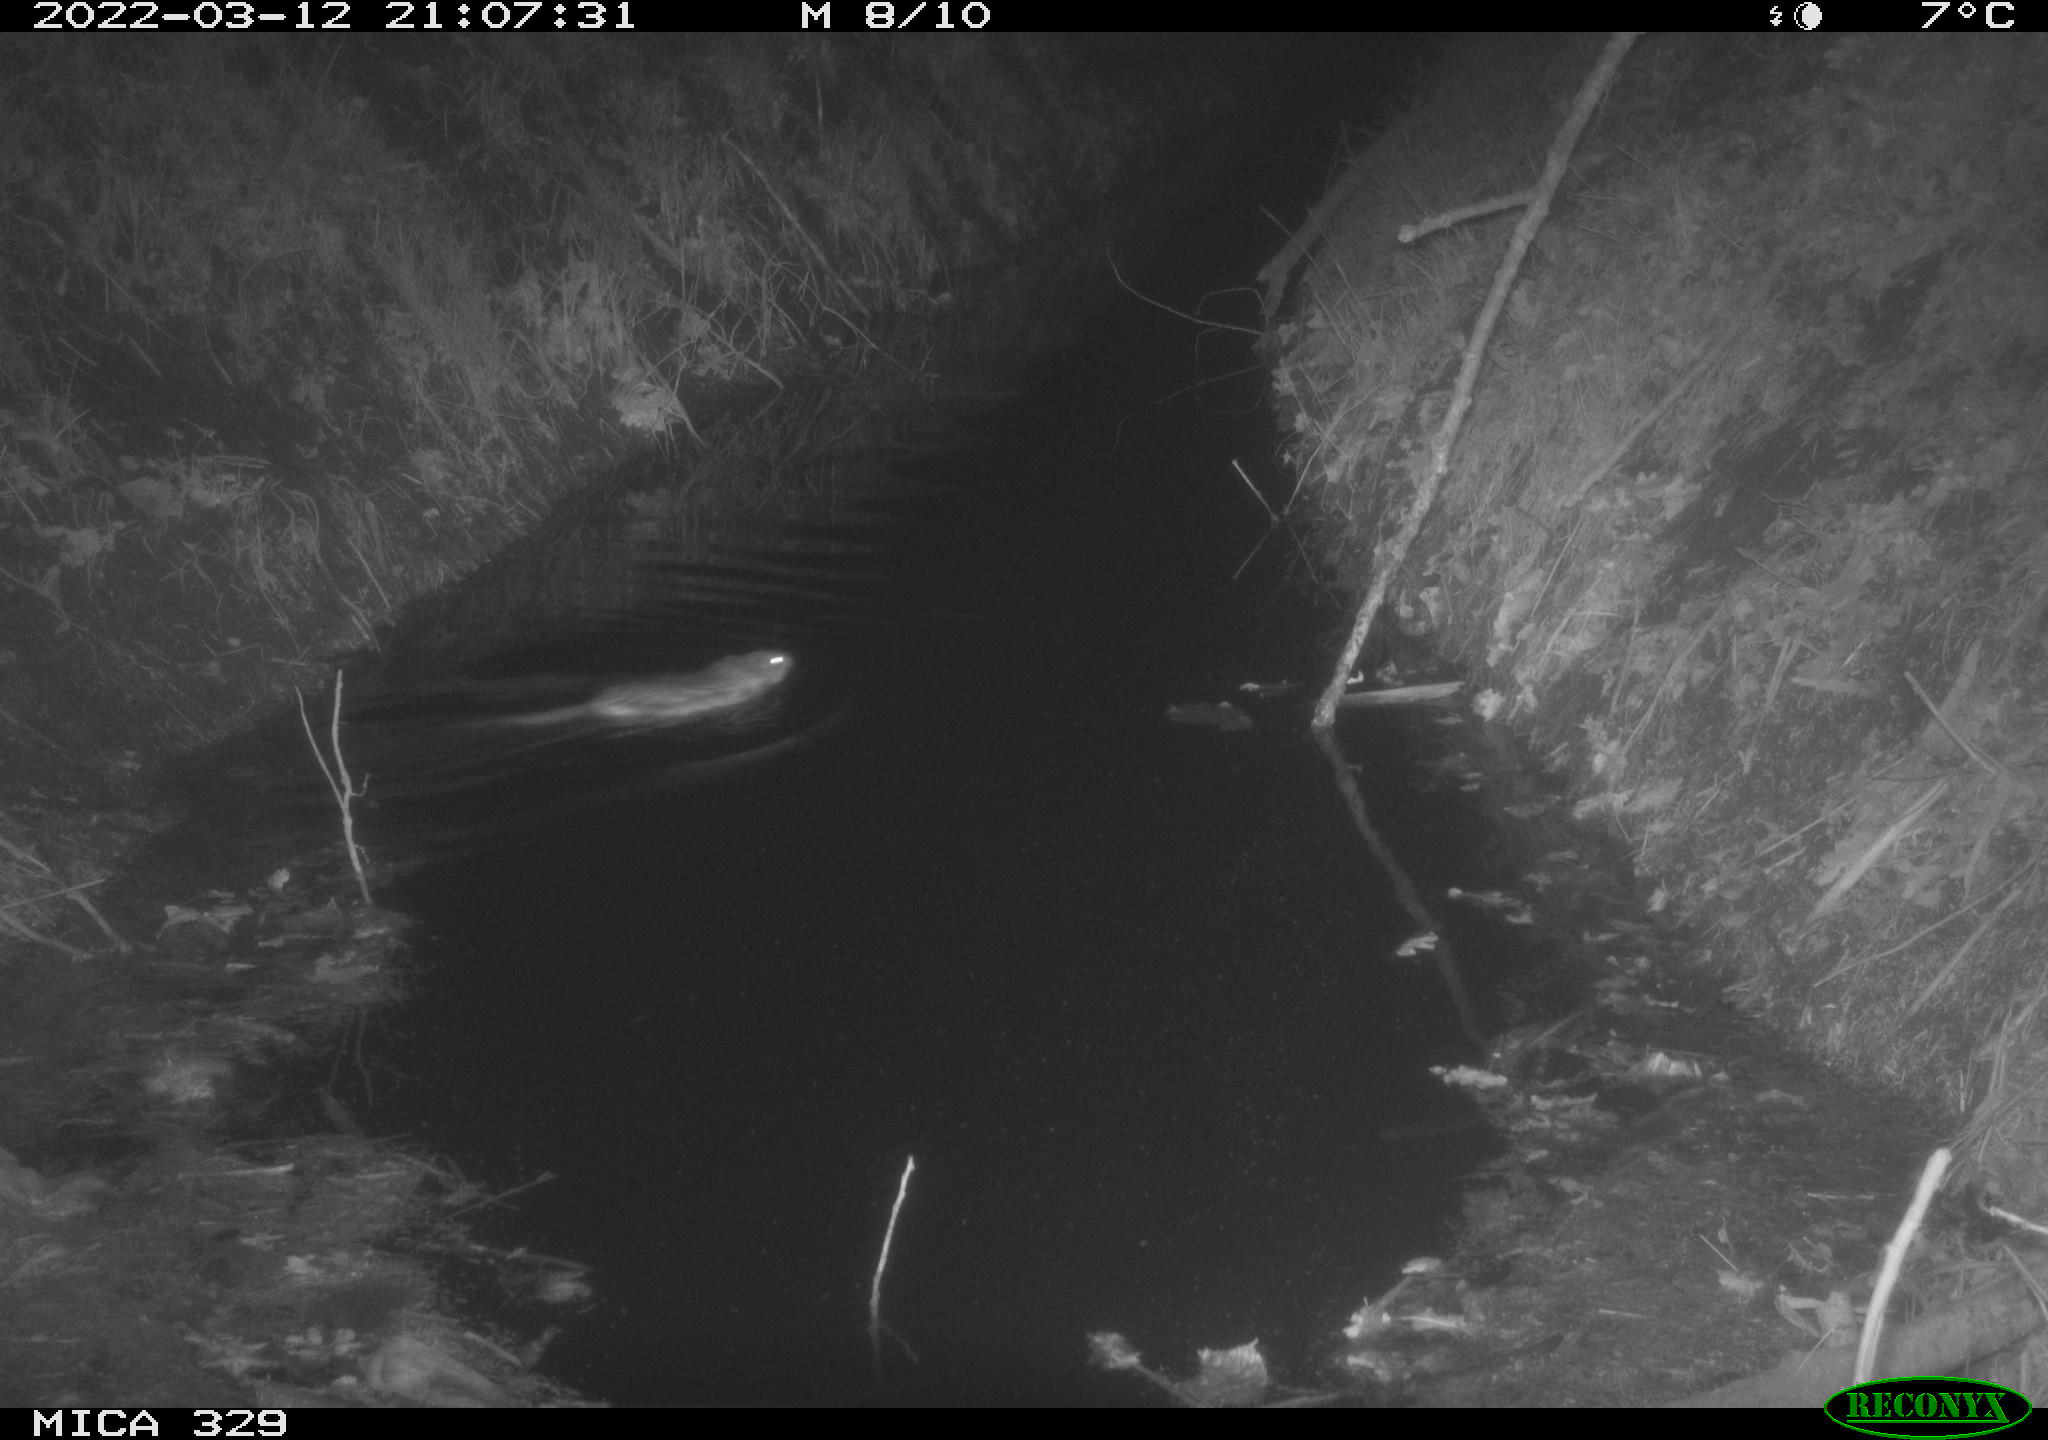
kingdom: Animalia
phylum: Chordata
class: Mammalia
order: Rodentia
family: Cricetidae
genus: Ondatra
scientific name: Ondatra zibethicus
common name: Muskrat
